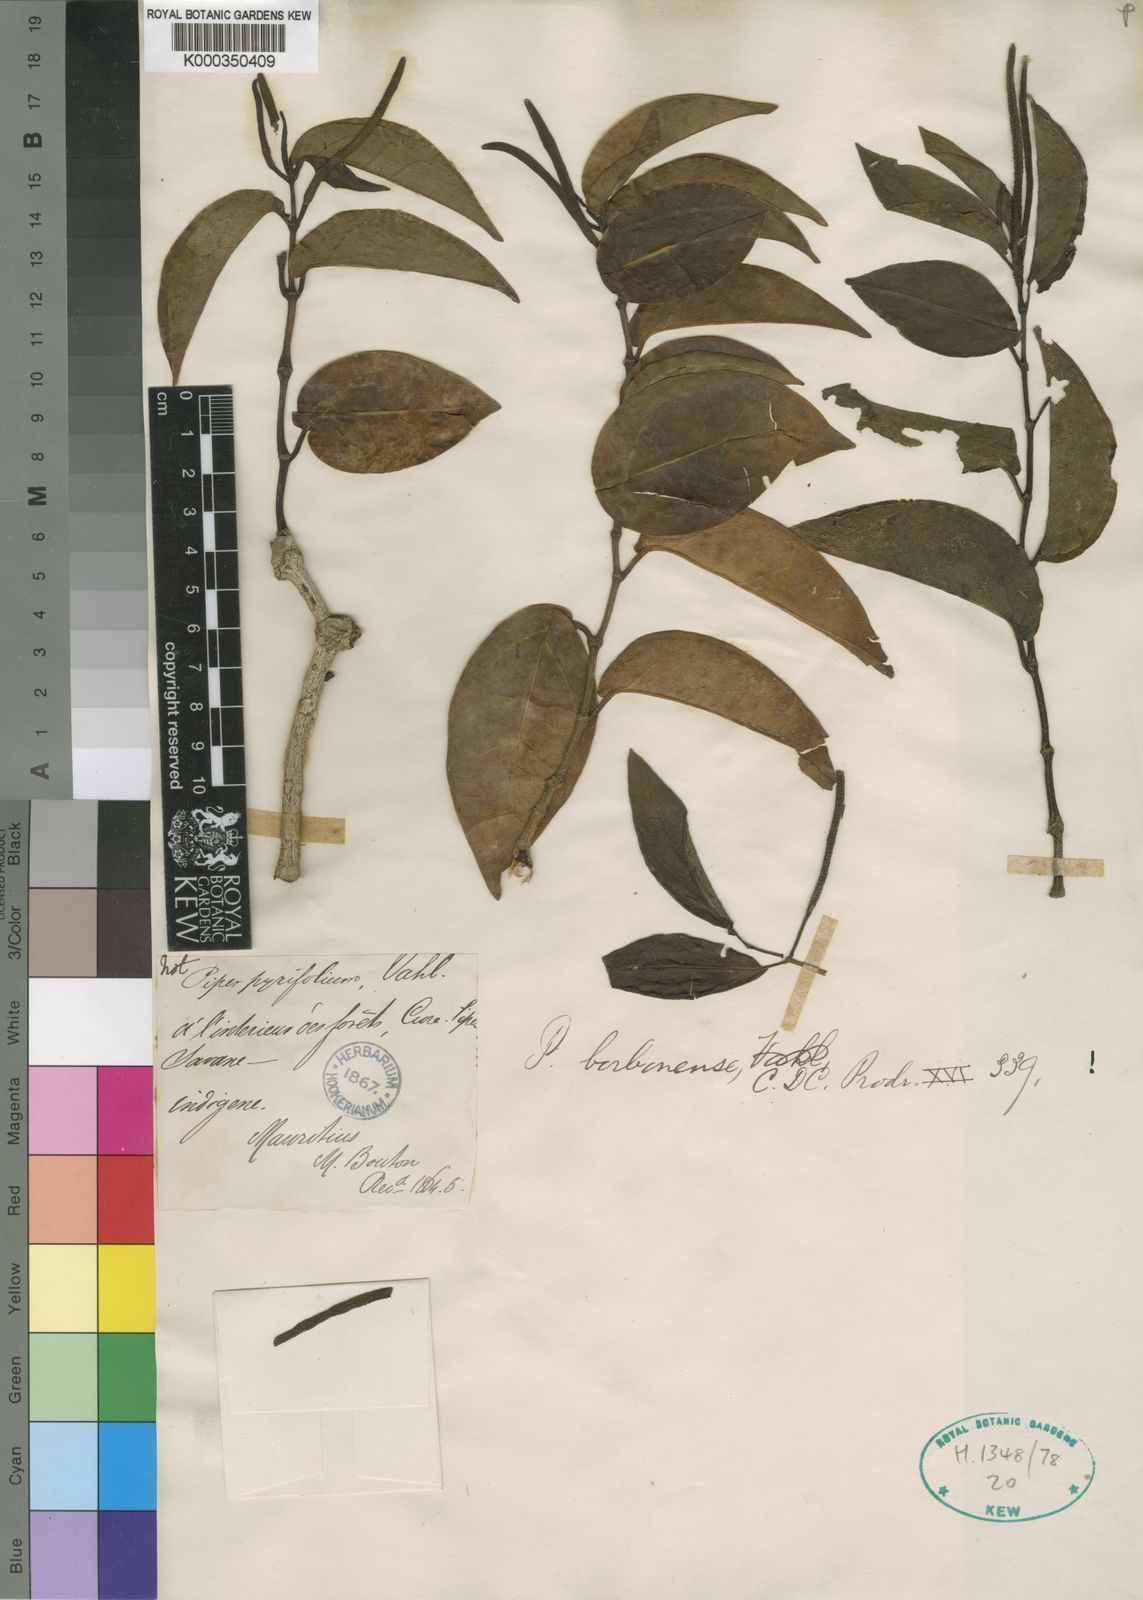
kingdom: Plantae
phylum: Tracheophyta
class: Magnoliopsida
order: Piperales
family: Piperaceae
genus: Piper
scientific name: Piper borbonense
